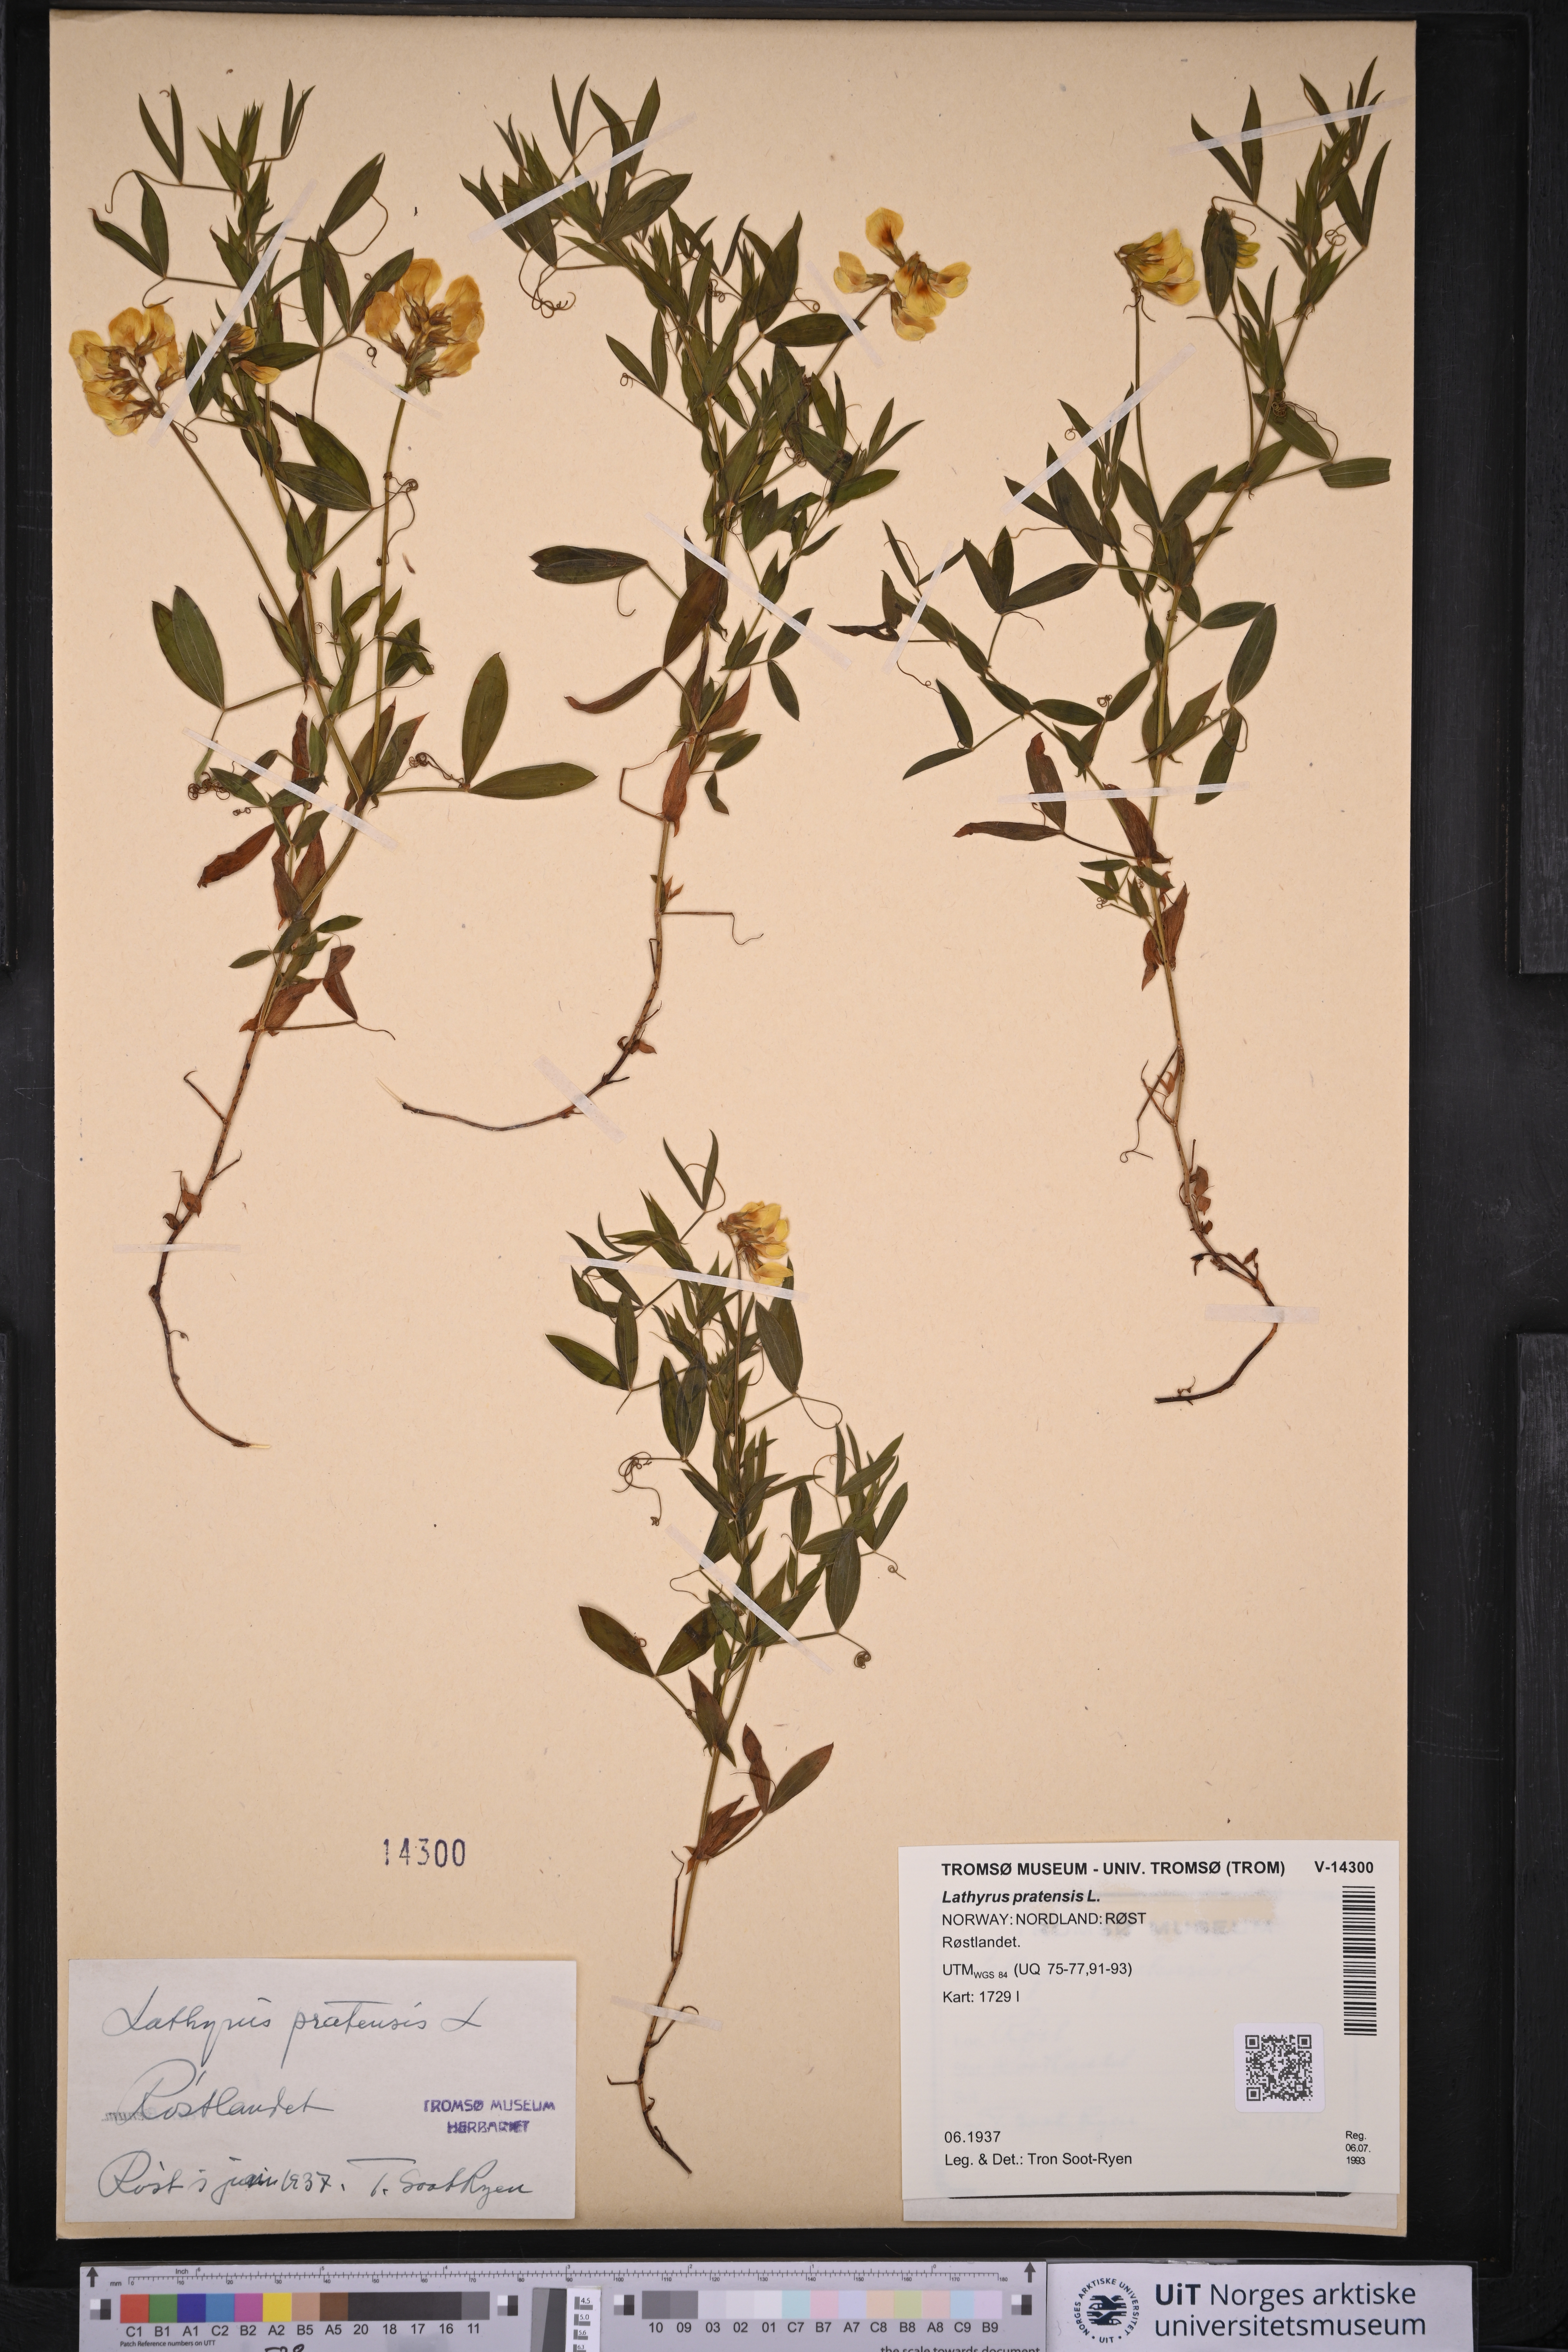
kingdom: Plantae
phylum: Tracheophyta
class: Magnoliopsida
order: Fabales
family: Fabaceae
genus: Lathyrus
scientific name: Lathyrus pratensis
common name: Meadow vetchling
